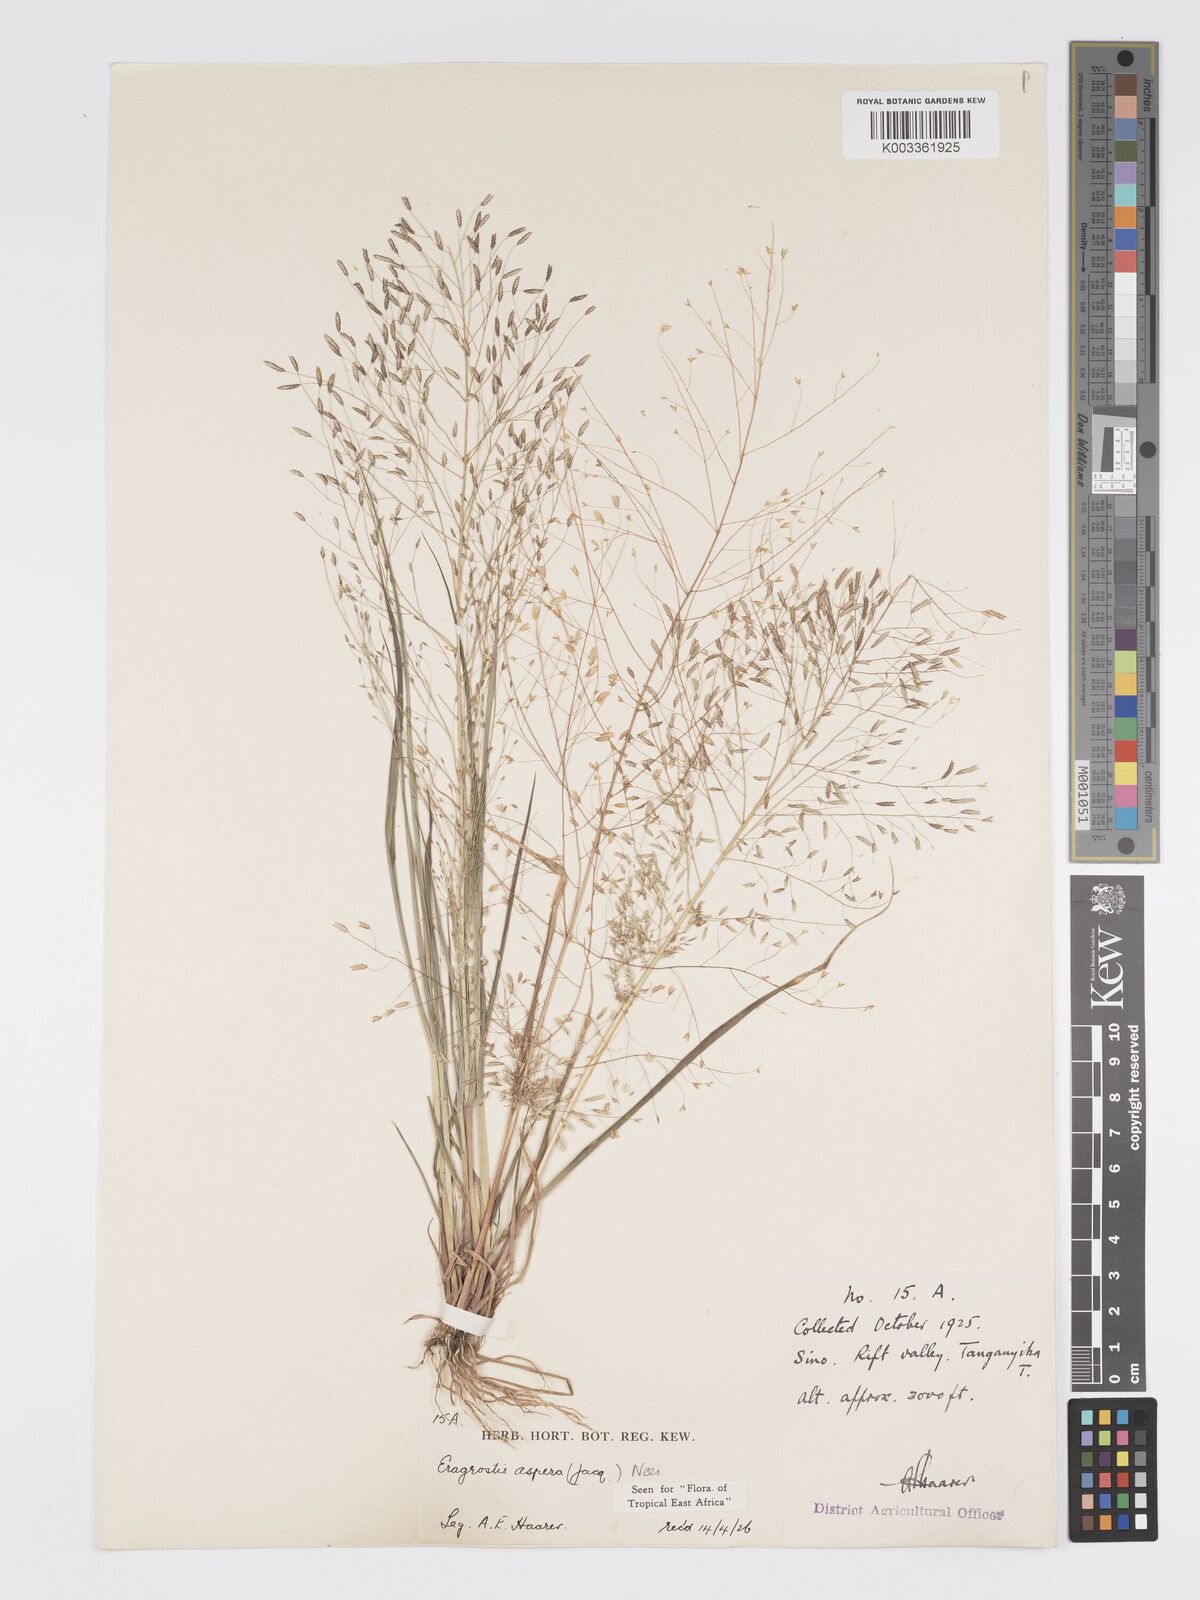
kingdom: Plantae
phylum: Tracheophyta
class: Liliopsida
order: Poales
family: Poaceae
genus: Eragrostis
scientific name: Eragrostis aspera
